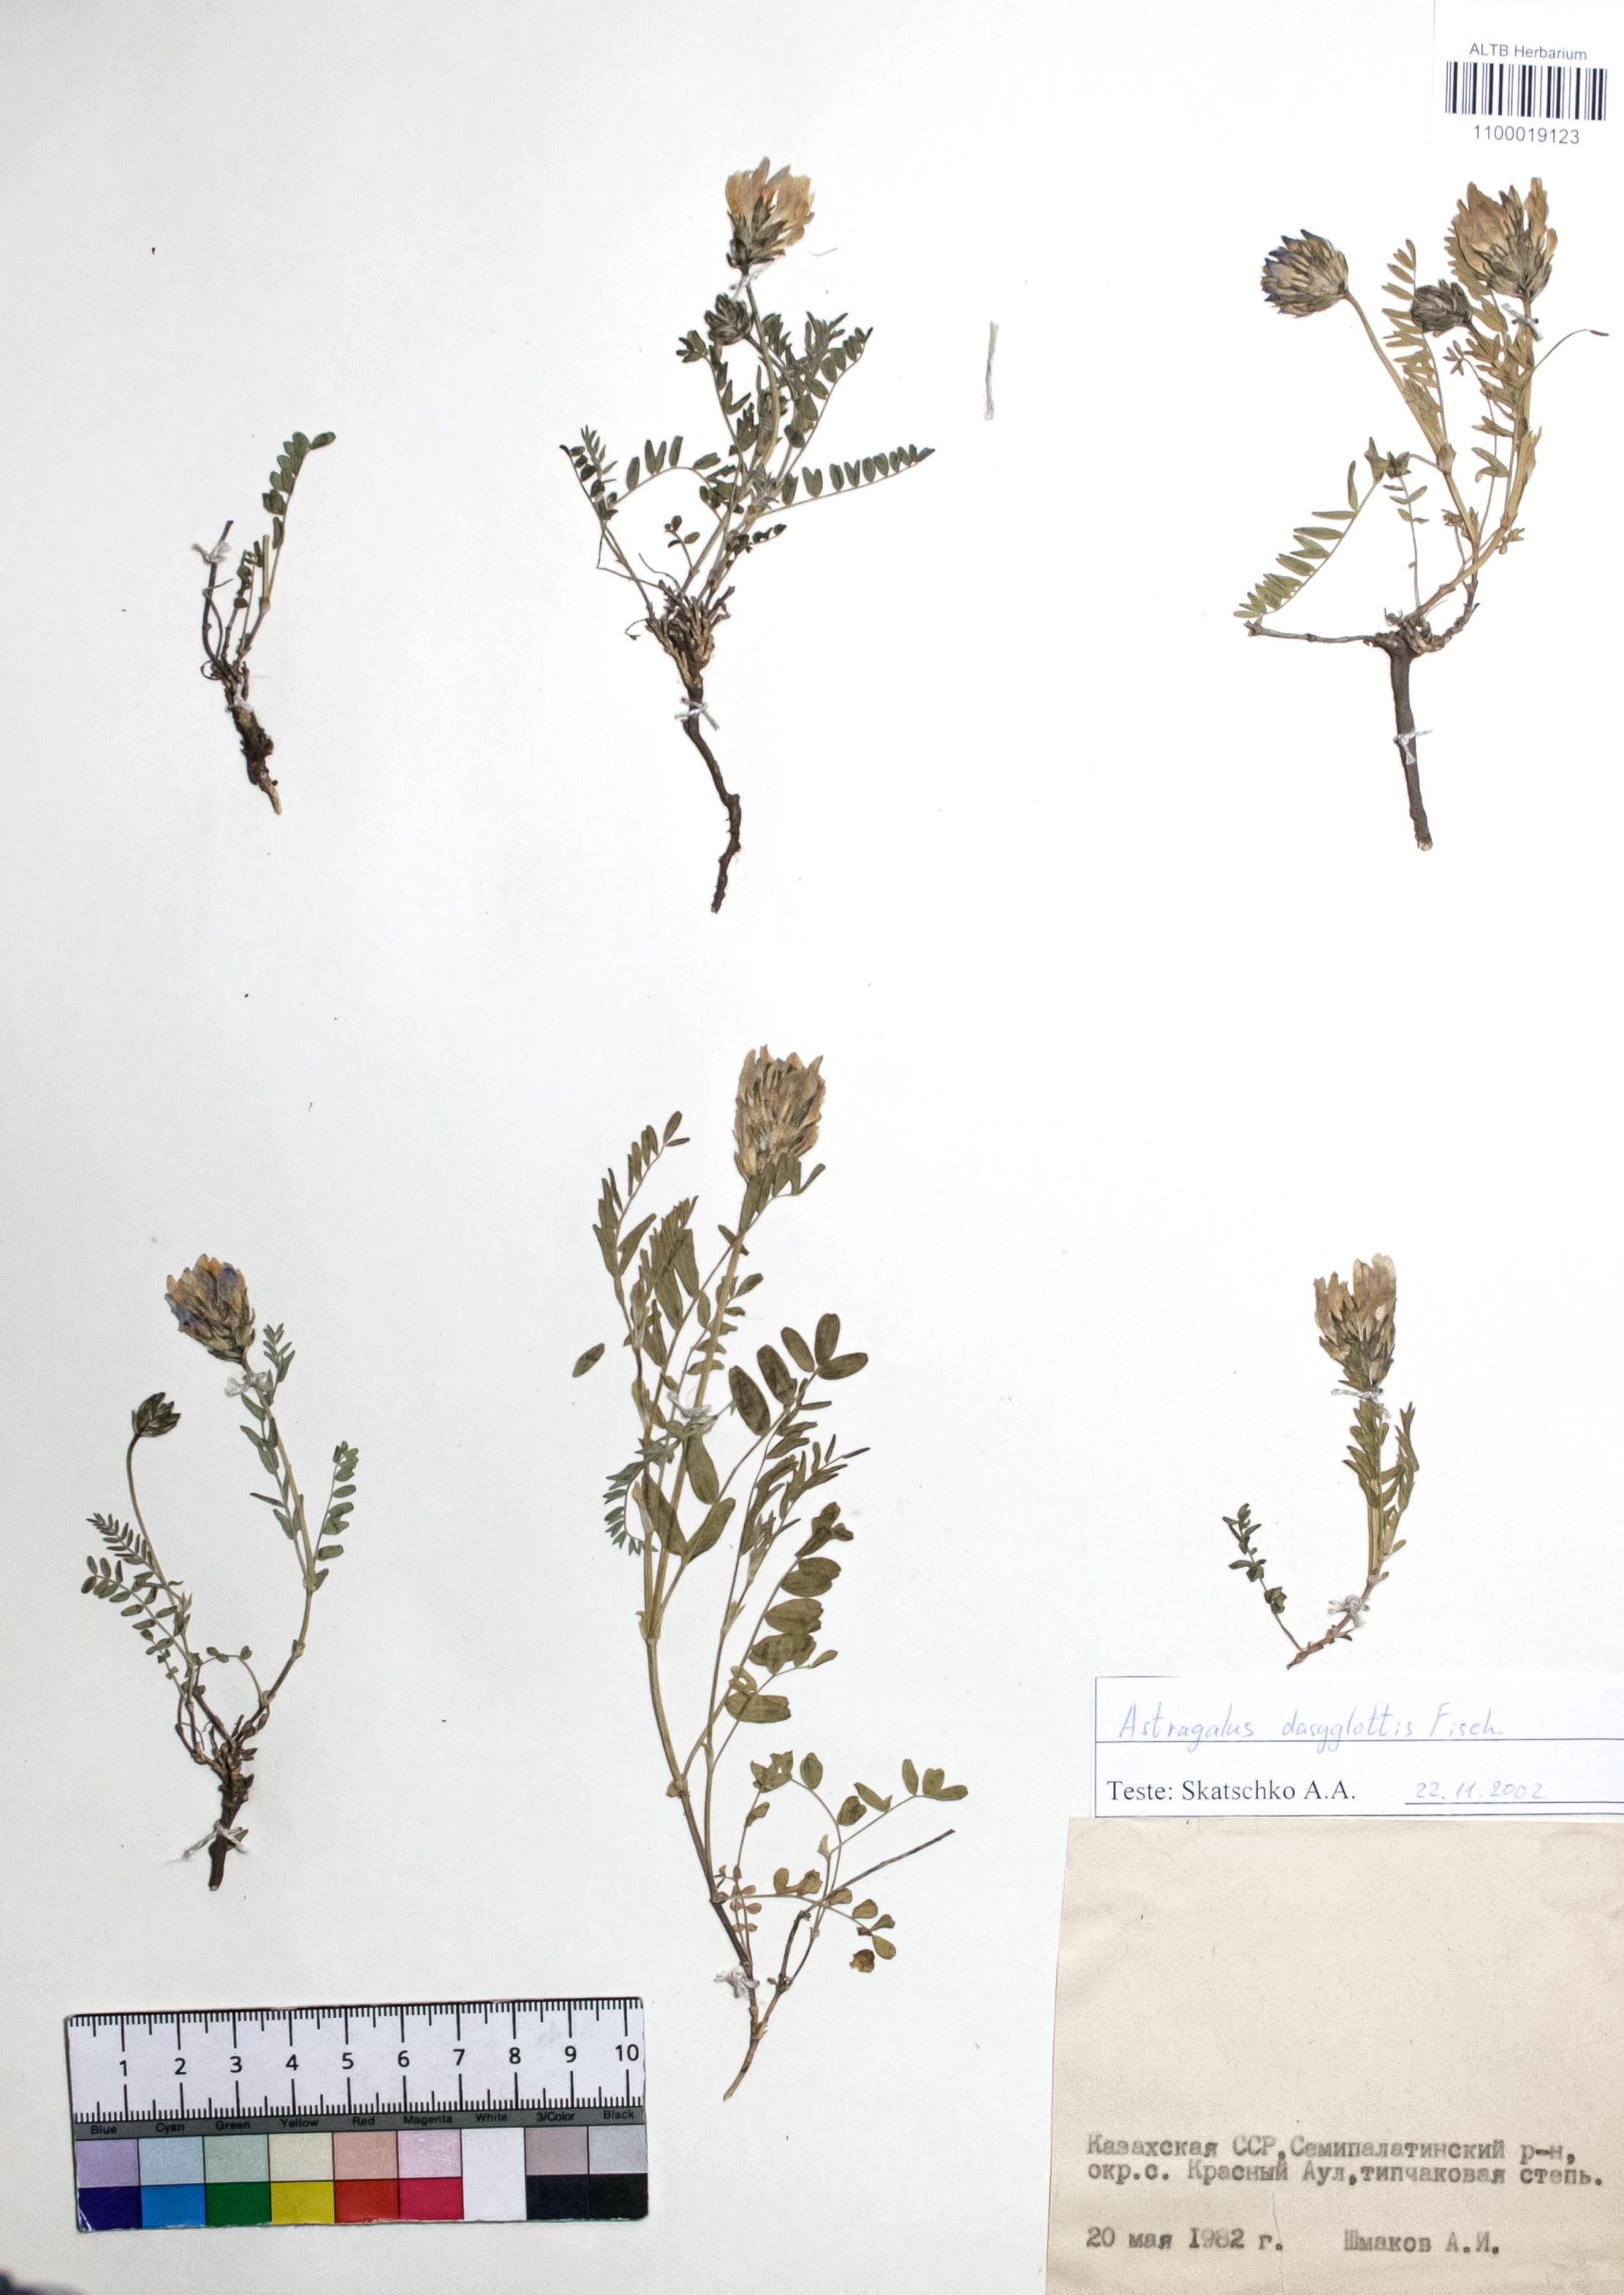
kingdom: Plantae
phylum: Tracheophyta
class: Magnoliopsida
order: Fabales
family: Fabaceae
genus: Astragalus
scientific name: Astragalus agrestis
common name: Field milk-vetch
